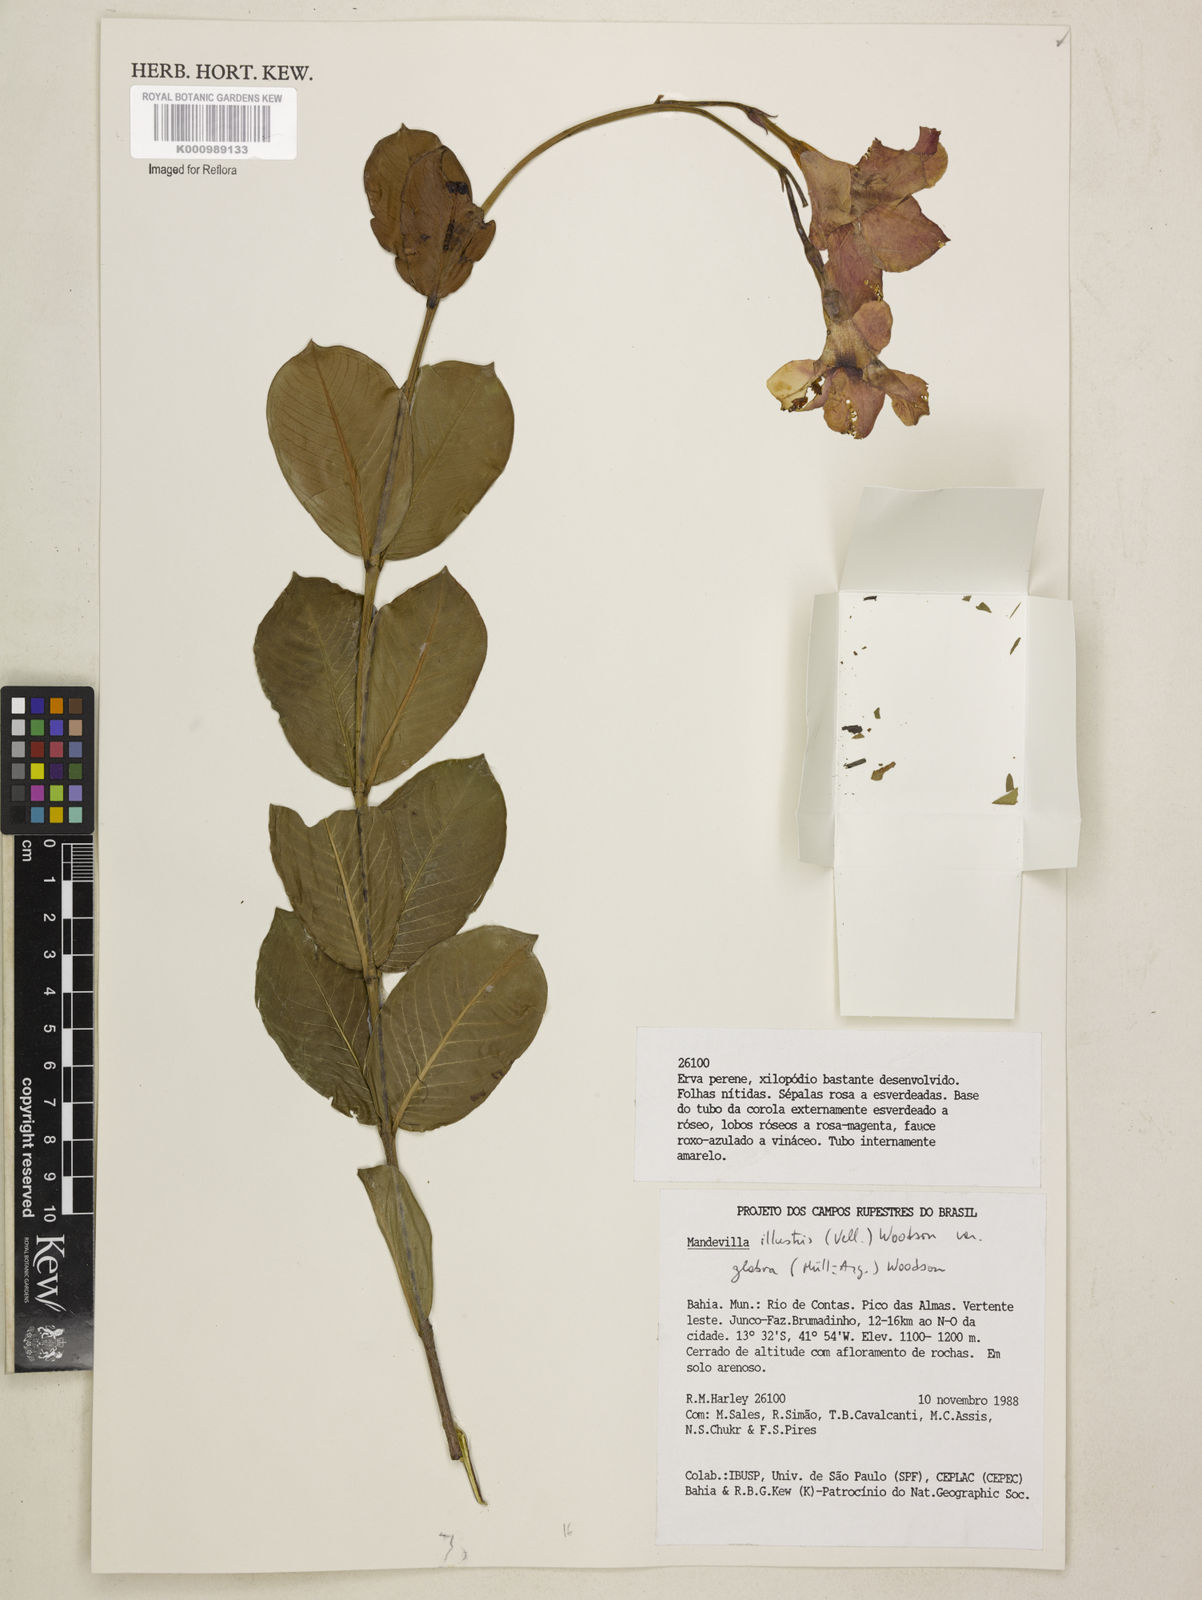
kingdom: Plantae
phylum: Tracheophyta
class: Magnoliopsida
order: Gentianales
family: Apocynaceae
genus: Mandevilla
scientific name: Mandevilla
